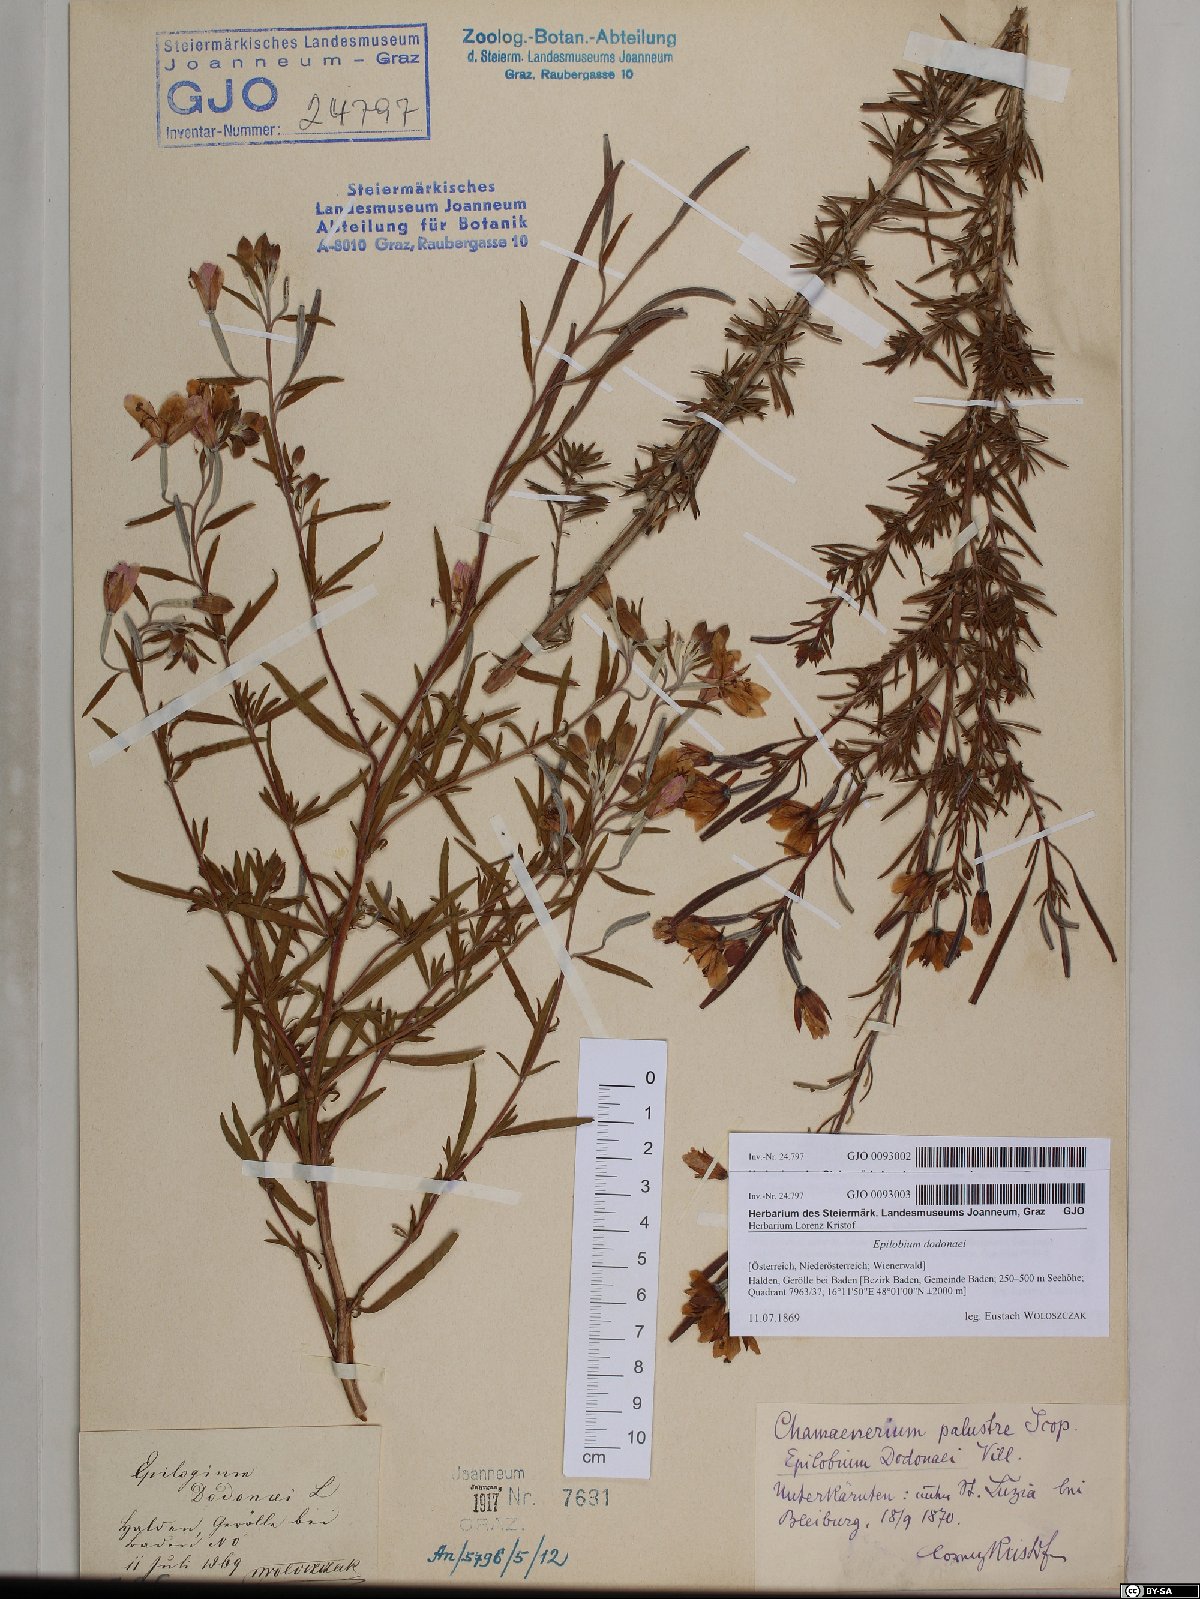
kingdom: Plantae
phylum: Tracheophyta
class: Magnoliopsida
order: Myrtales
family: Onagraceae
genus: Chamaenerion
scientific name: Chamaenerion dodonaei
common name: Rosemary-leaved willowherb
